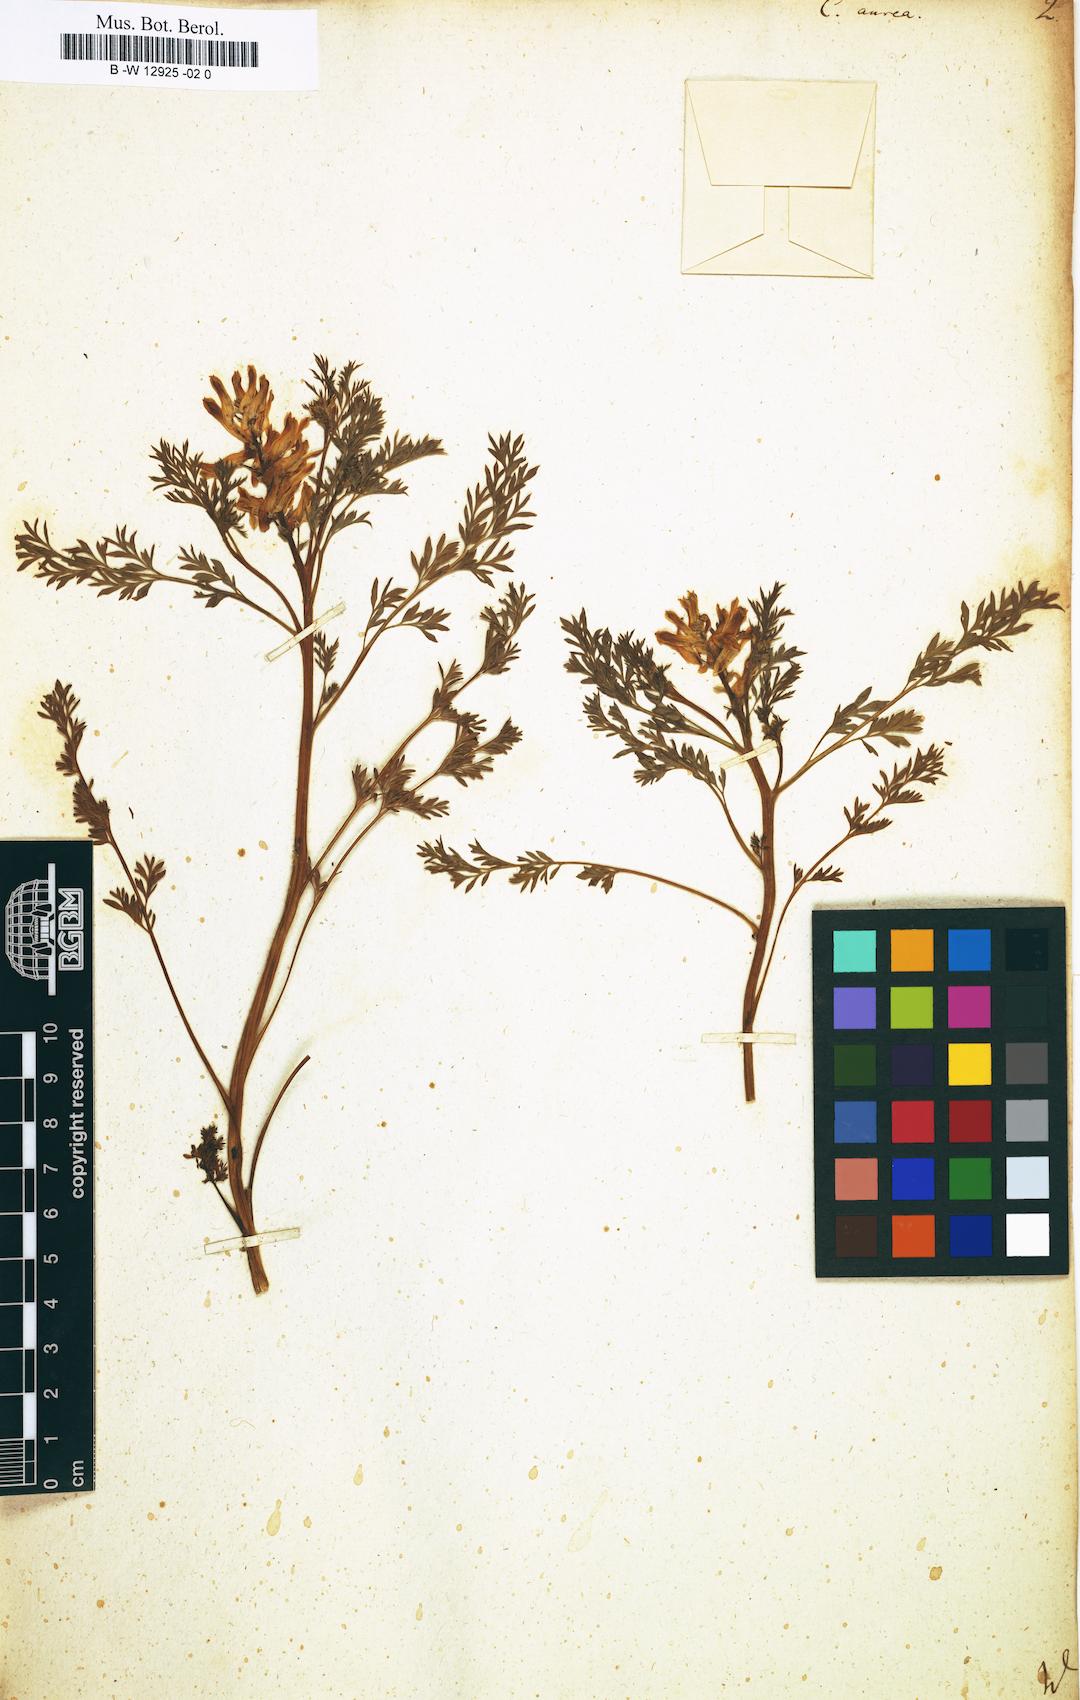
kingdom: Plantae
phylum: Tracheophyta
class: Magnoliopsida
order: Ranunculales
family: Papaveraceae
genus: Corydalis
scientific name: Corydalis aurea
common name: Golden corydalis
